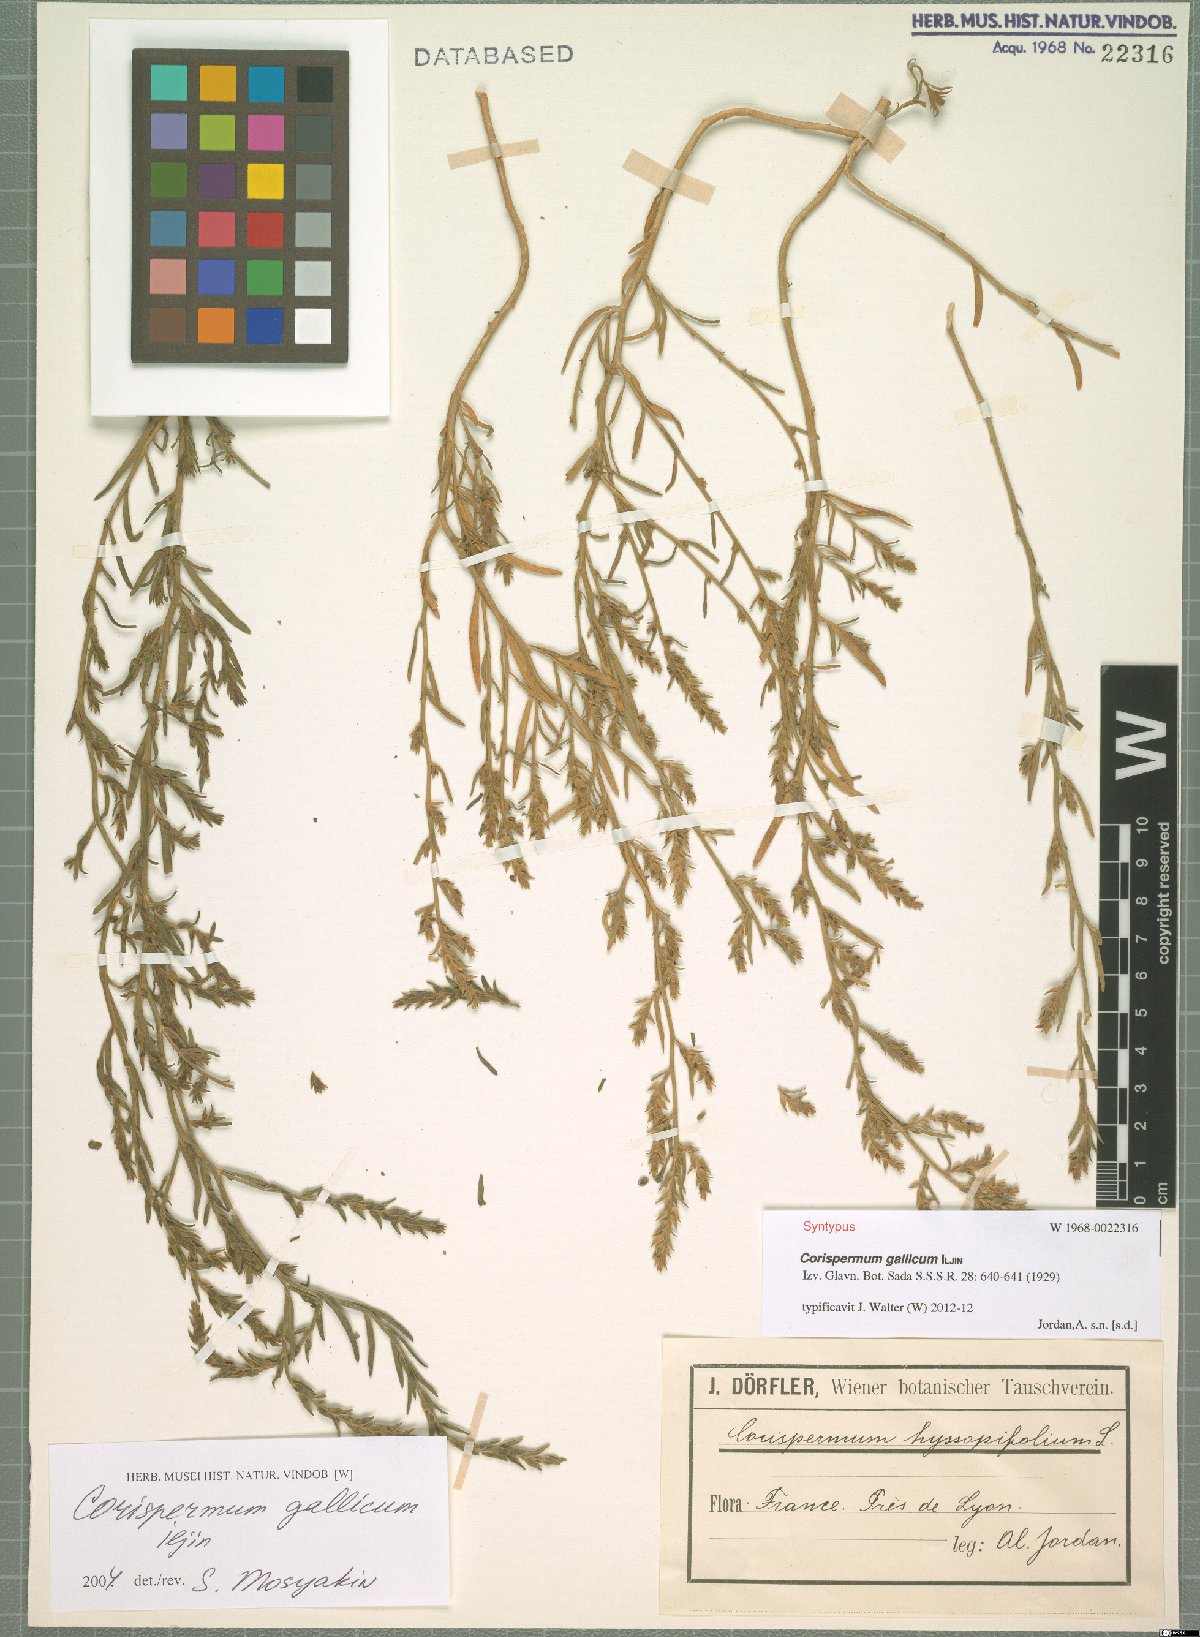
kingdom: Plantae
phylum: Tracheophyta
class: Magnoliopsida
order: Caryophyllales
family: Amaranthaceae
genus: Corispermum
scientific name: Corispermum gallicum
